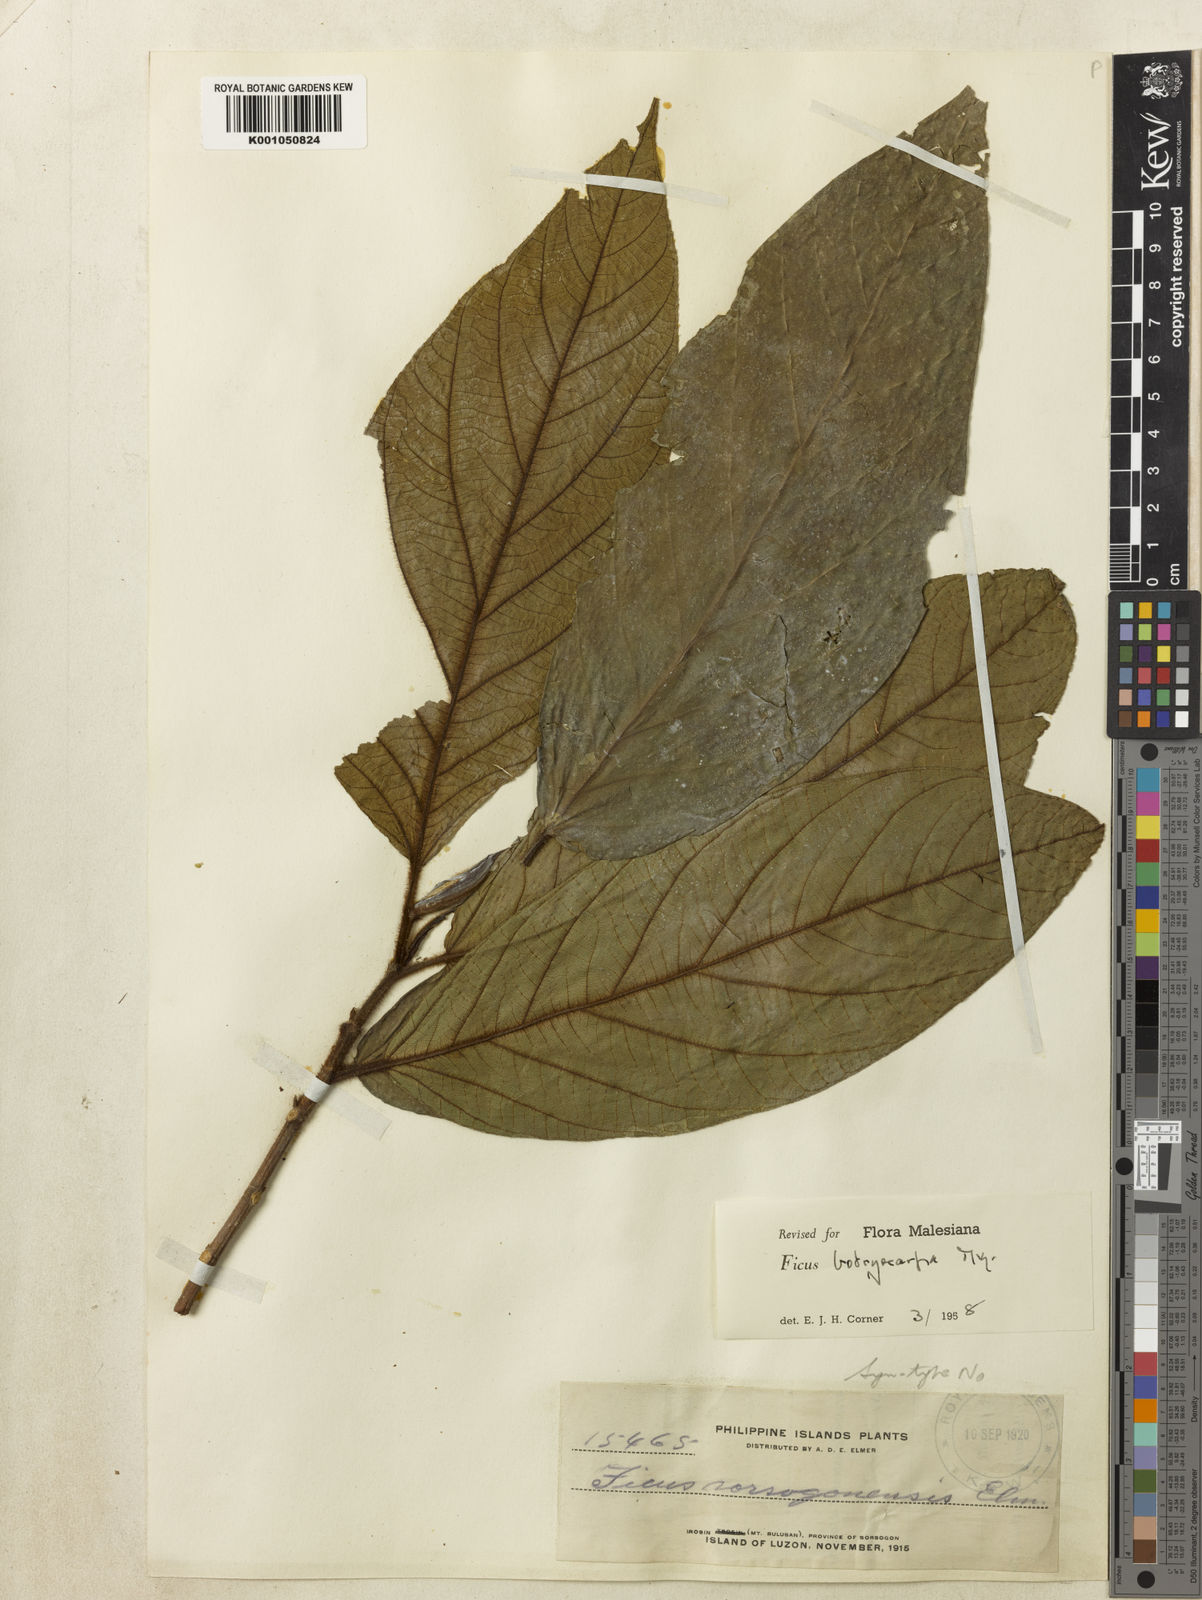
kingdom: Plantae
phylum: Tracheophyta
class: Magnoliopsida
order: Rosales
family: Moraceae
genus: Ficus
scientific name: Ficus botryocarpa
